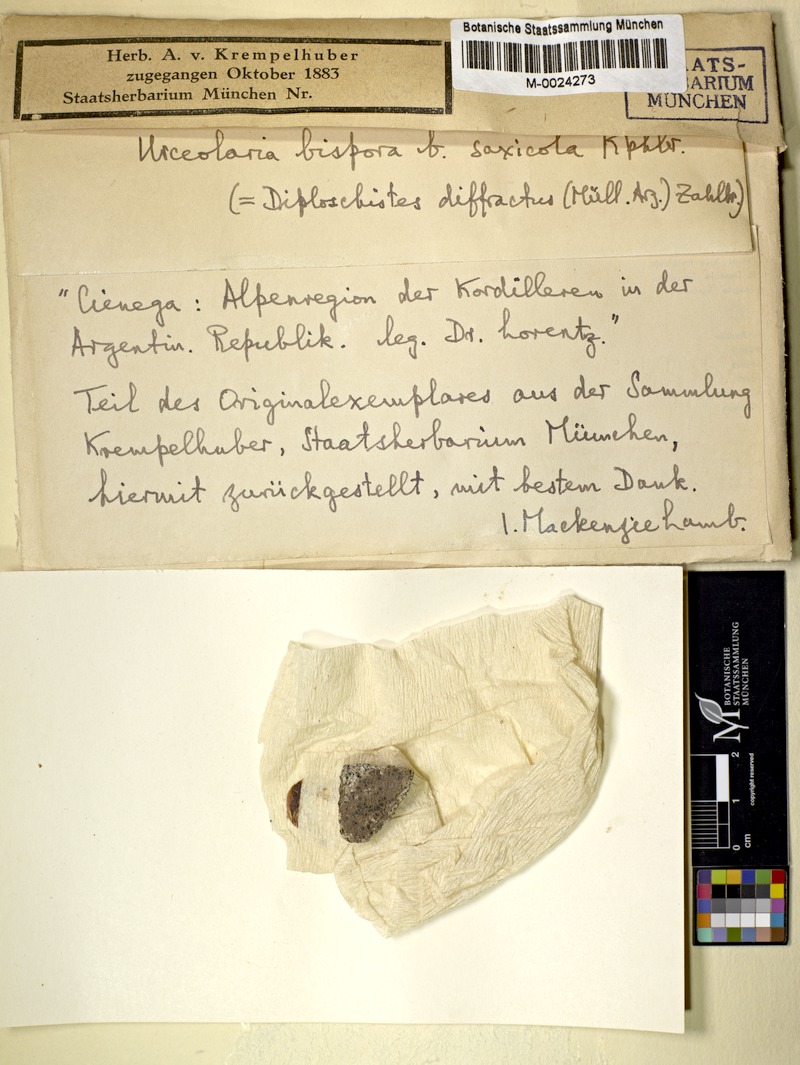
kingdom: Fungi
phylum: Ascomycota
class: Lecanoromycetes
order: Ostropales
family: Stictidaceae
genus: Ingvariella
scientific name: Ingvariella bispora
